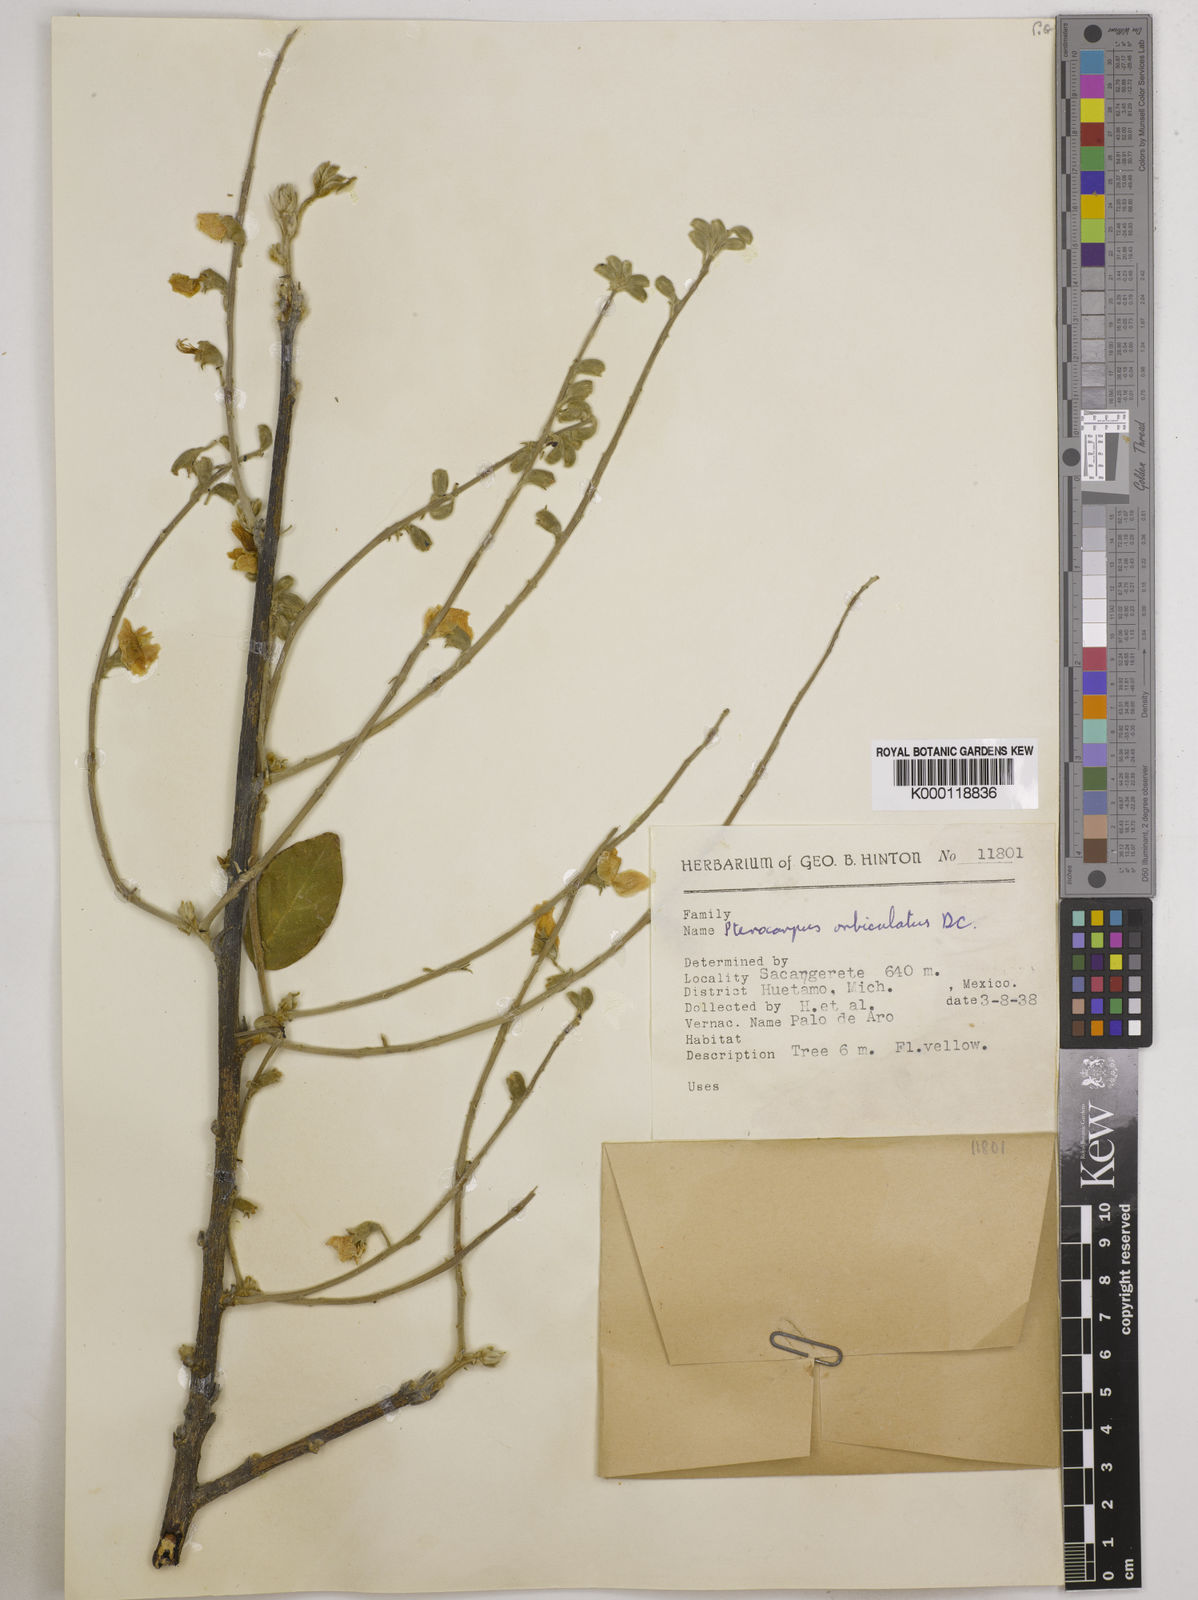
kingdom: Plantae
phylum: Tracheophyta
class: Magnoliopsida
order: Fabales
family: Fabaceae
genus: Pterocarpus
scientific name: Pterocarpus orbiculatus
